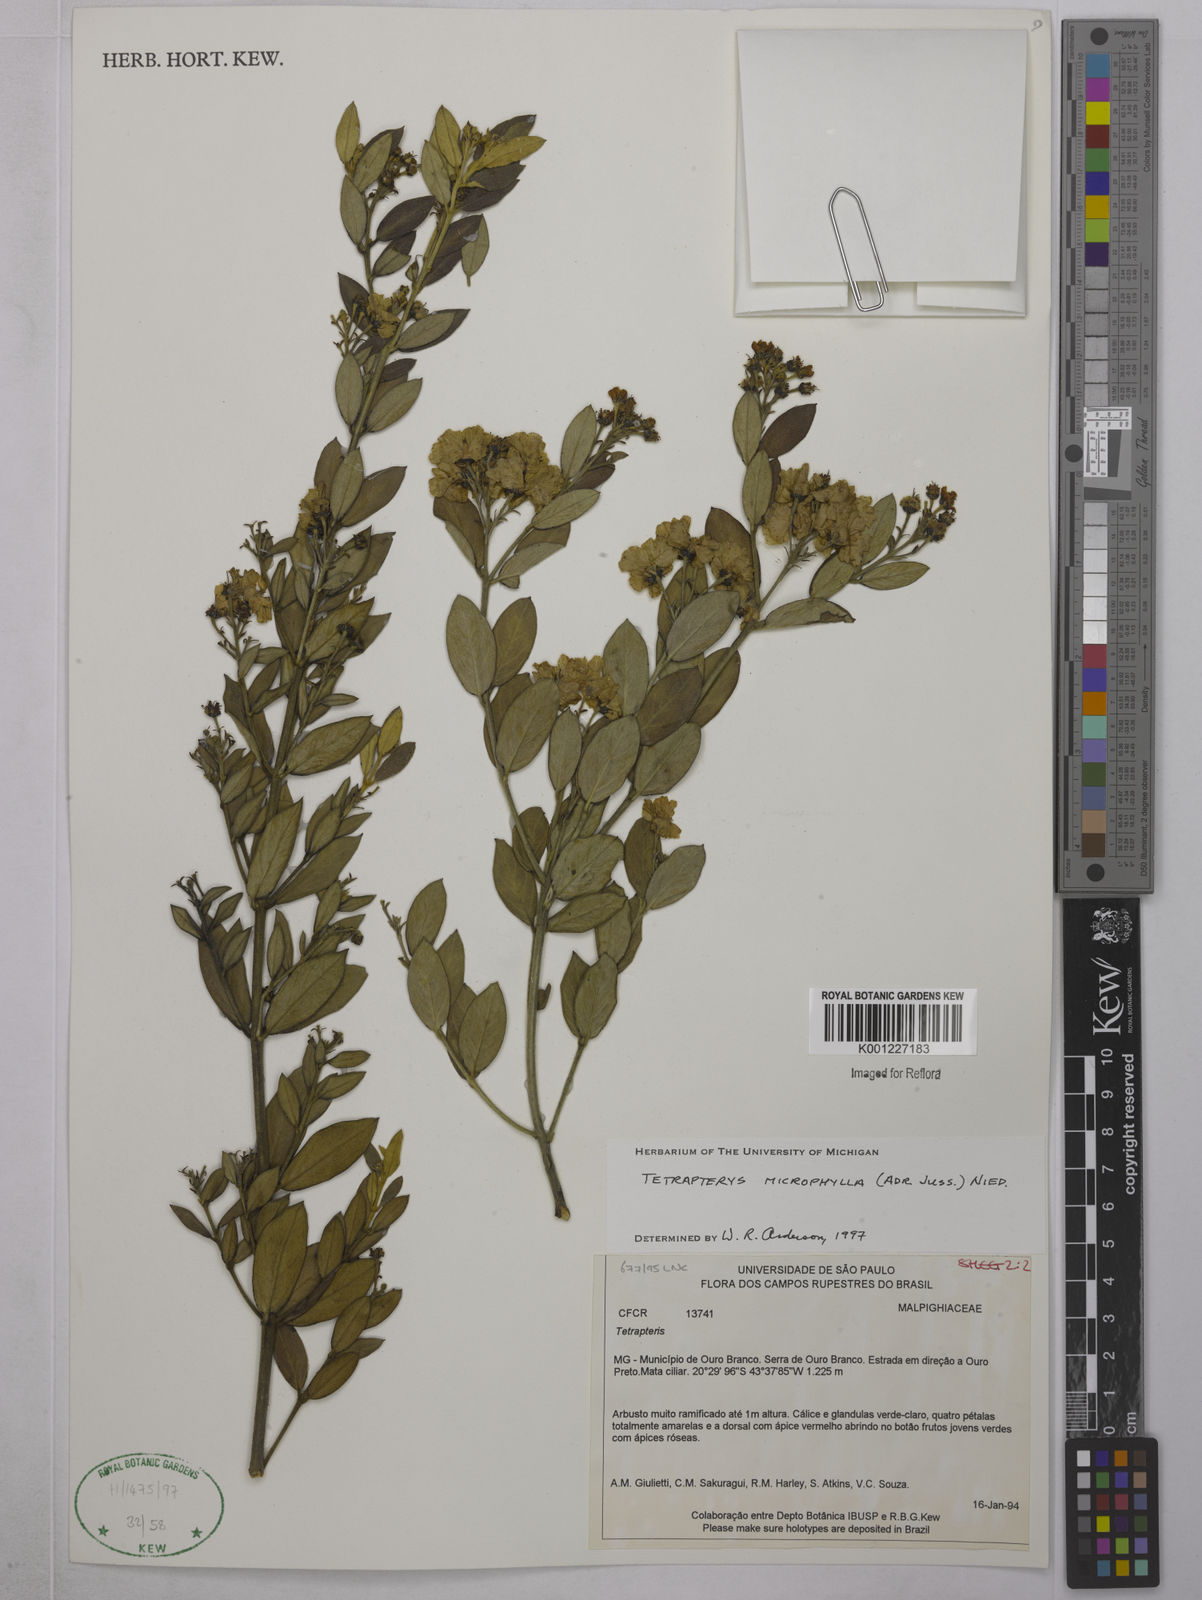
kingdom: Plantae
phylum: Tracheophyta
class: Magnoliopsida
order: Malpighiales
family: Malpighiaceae
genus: Glicophyllum
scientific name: Glicophyllum microphyllum
